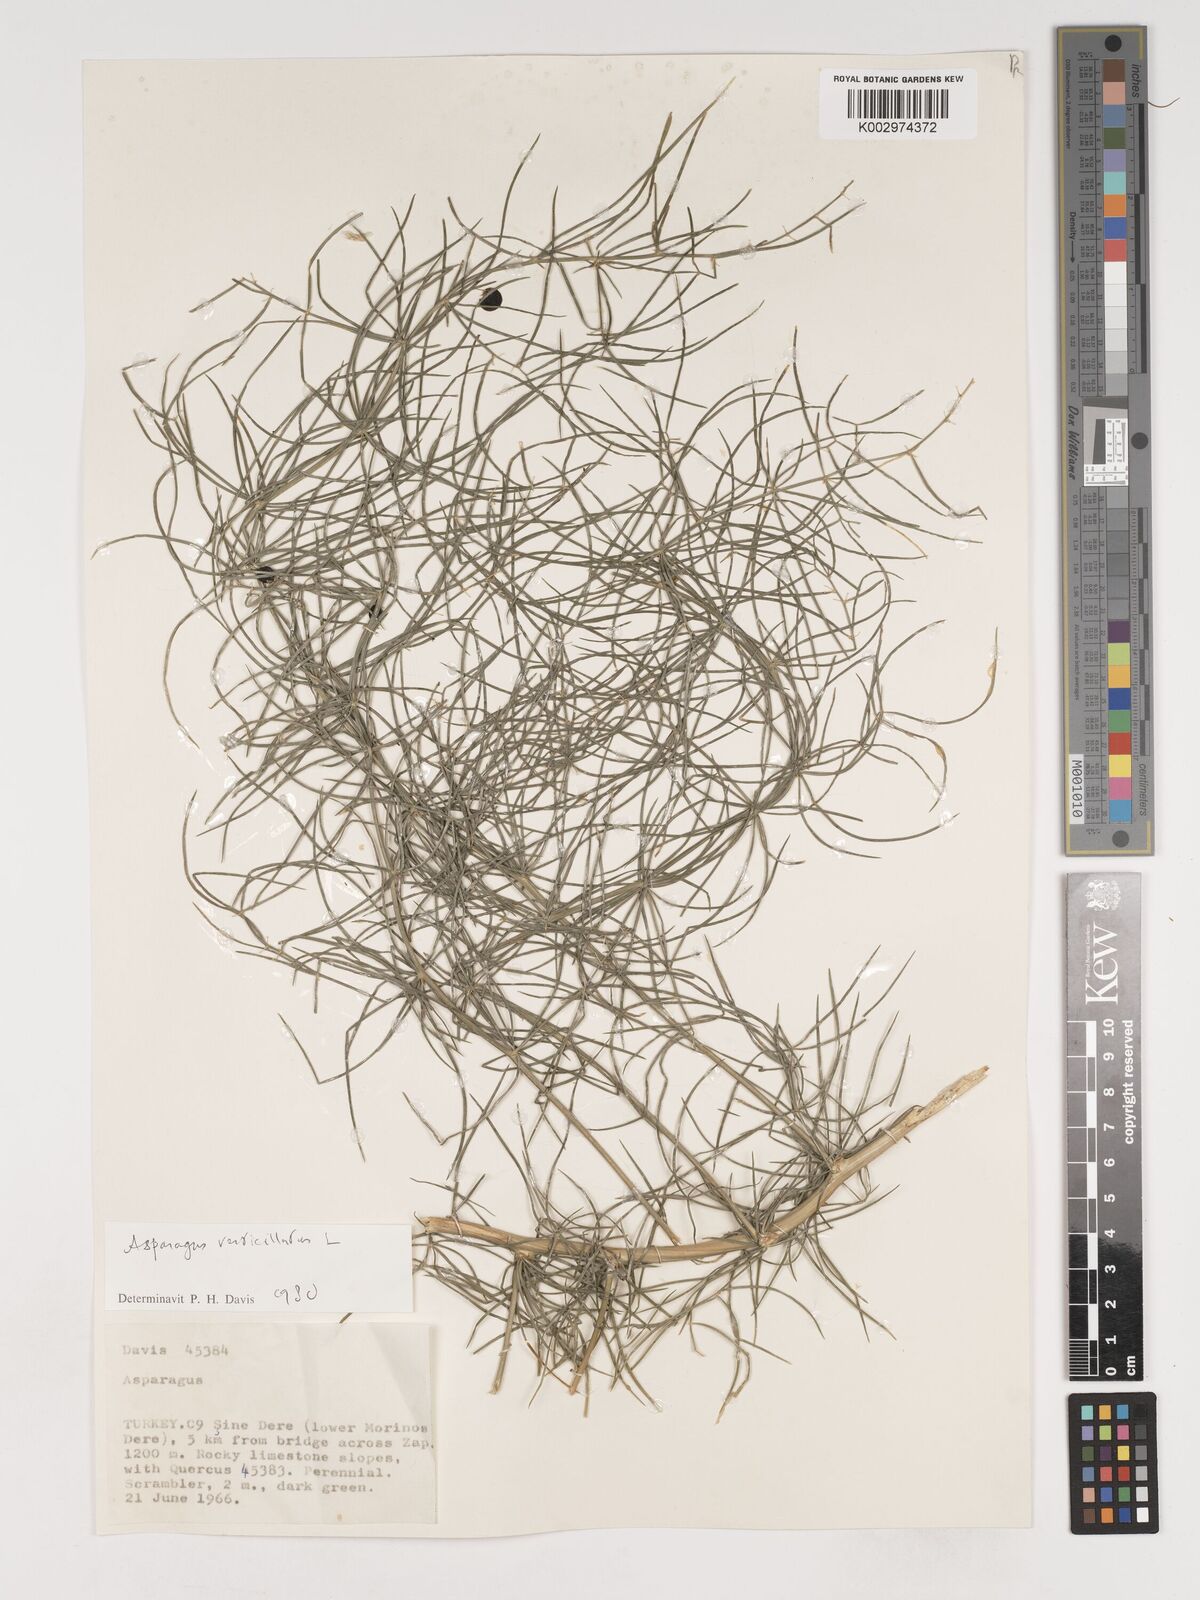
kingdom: Plantae
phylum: Tracheophyta
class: Liliopsida
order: Asparagales
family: Asparagaceae
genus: Asparagus
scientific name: Asparagus verticillatus
